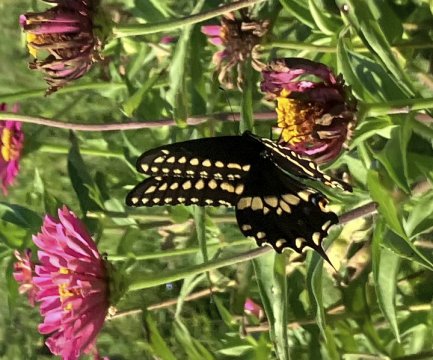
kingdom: Animalia
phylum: Arthropoda
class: Insecta
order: Lepidoptera
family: Papilionidae
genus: Papilio
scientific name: Papilio polyxenes
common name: Black Swallowtail
